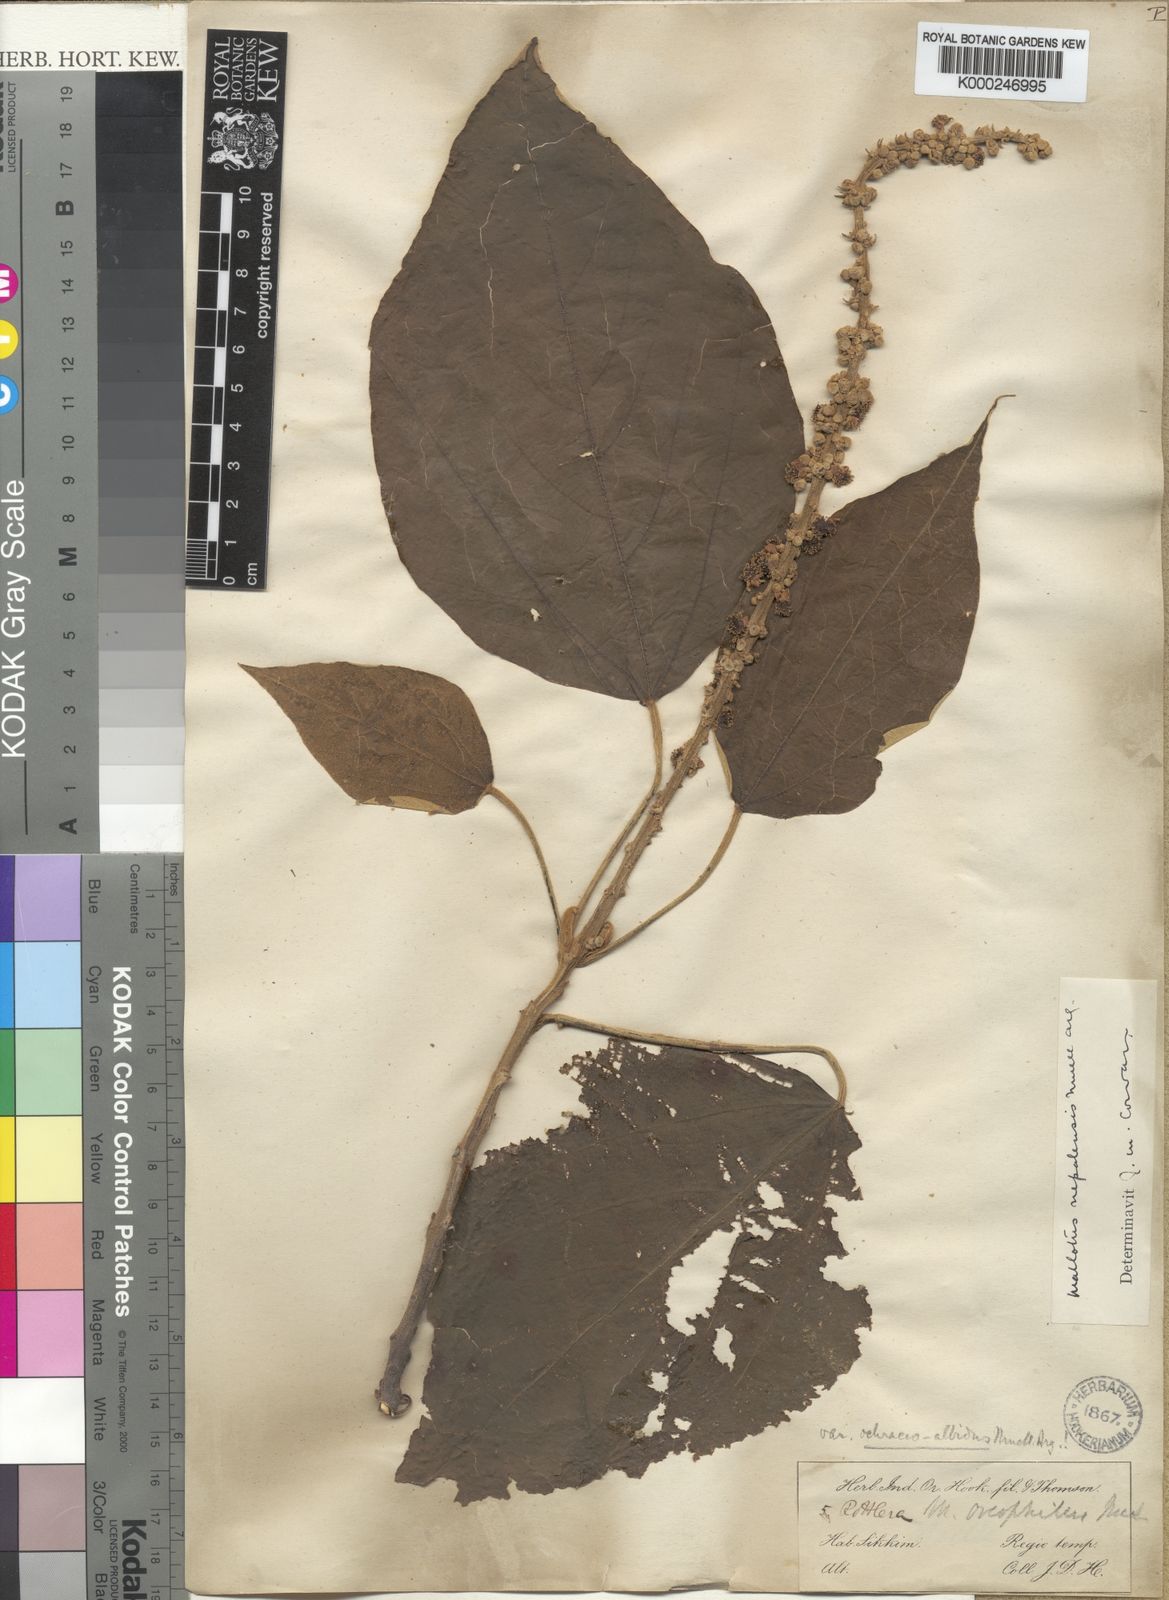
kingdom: Plantae
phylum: Tracheophyta
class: Magnoliopsida
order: Malpighiales
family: Euphorbiaceae
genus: Mallotus
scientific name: Mallotus
